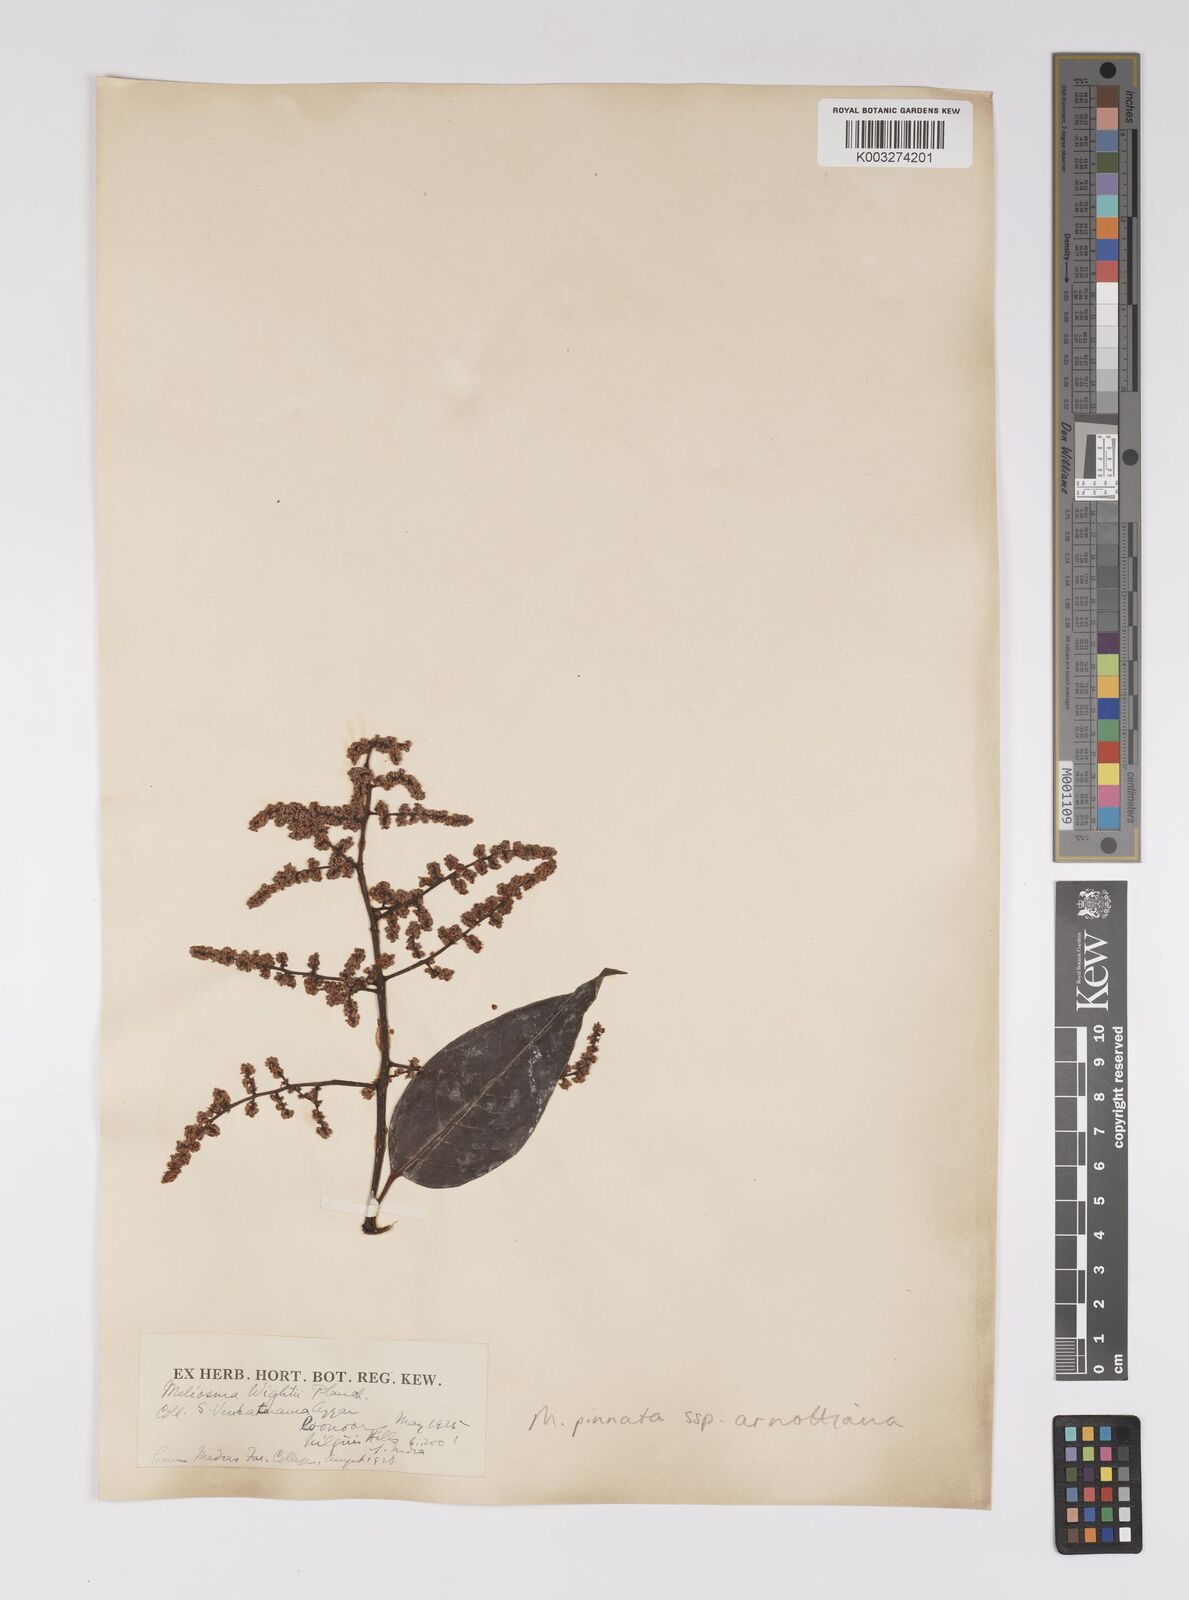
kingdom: Plantae
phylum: Tracheophyta
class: Magnoliopsida
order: Proteales
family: Sabiaceae
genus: Meliosma
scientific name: Meliosma rhoifolia
